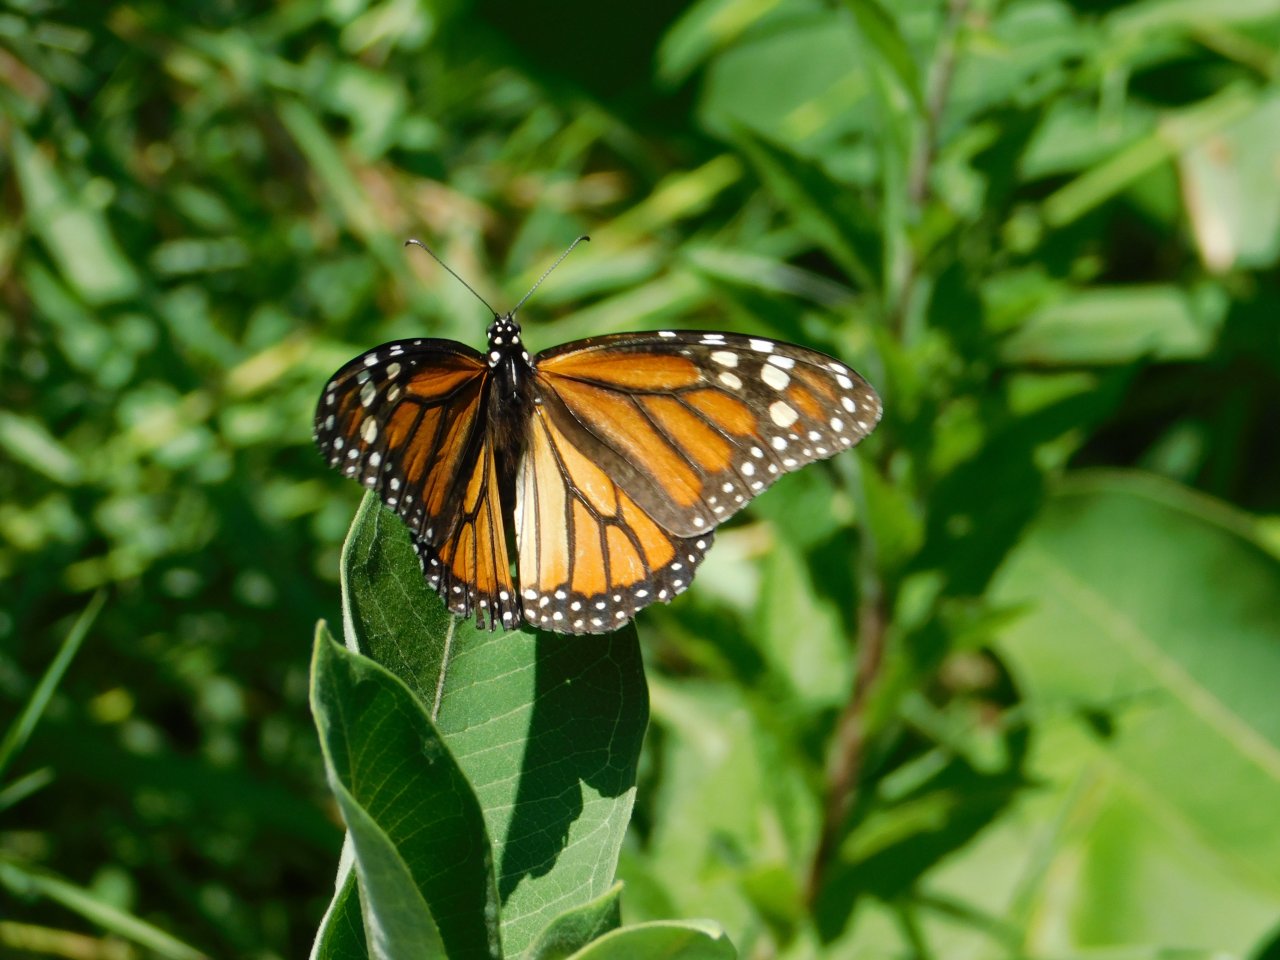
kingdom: Animalia
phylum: Arthropoda
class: Insecta
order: Lepidoptera
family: Nymphalidae
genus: Danaus
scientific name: Danaus plexippus
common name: Monarch
